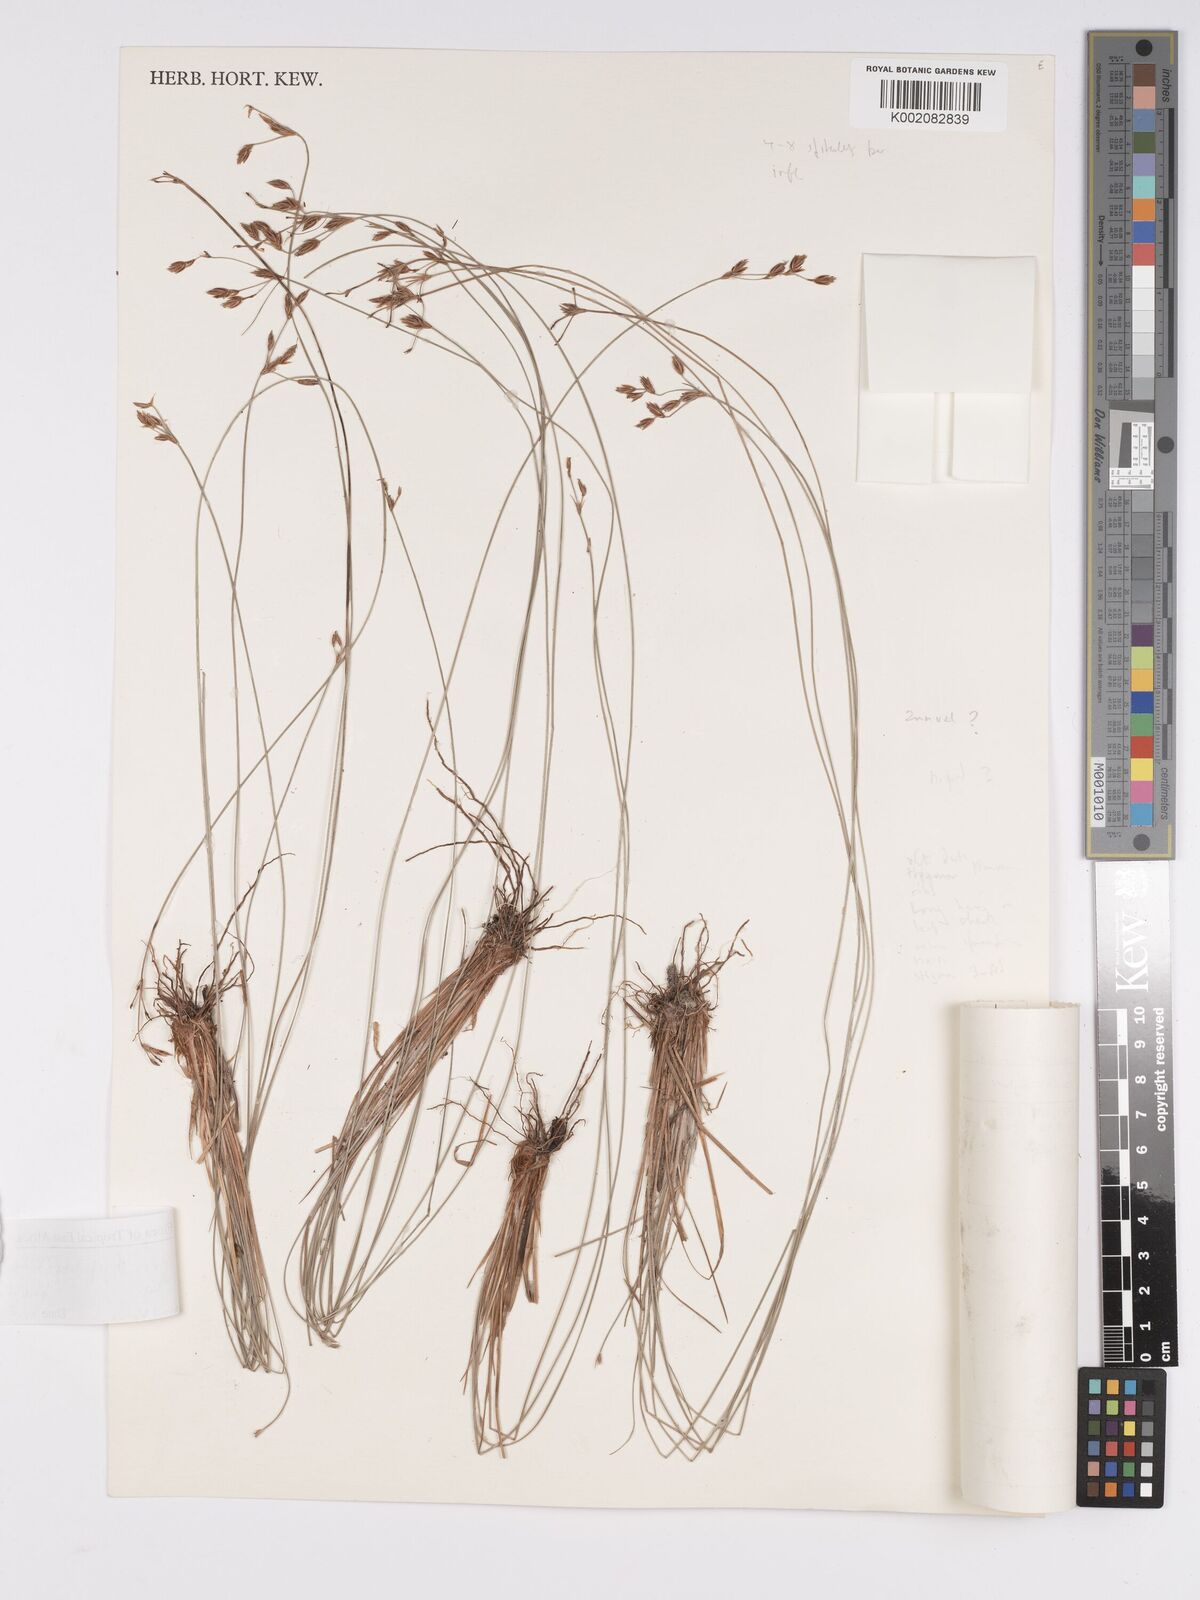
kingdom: Plantae
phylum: Tracheophyta
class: Liliopsida
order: Poales
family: Cyperaceae
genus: Bulbostylis
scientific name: Bulbostylis hispidula
